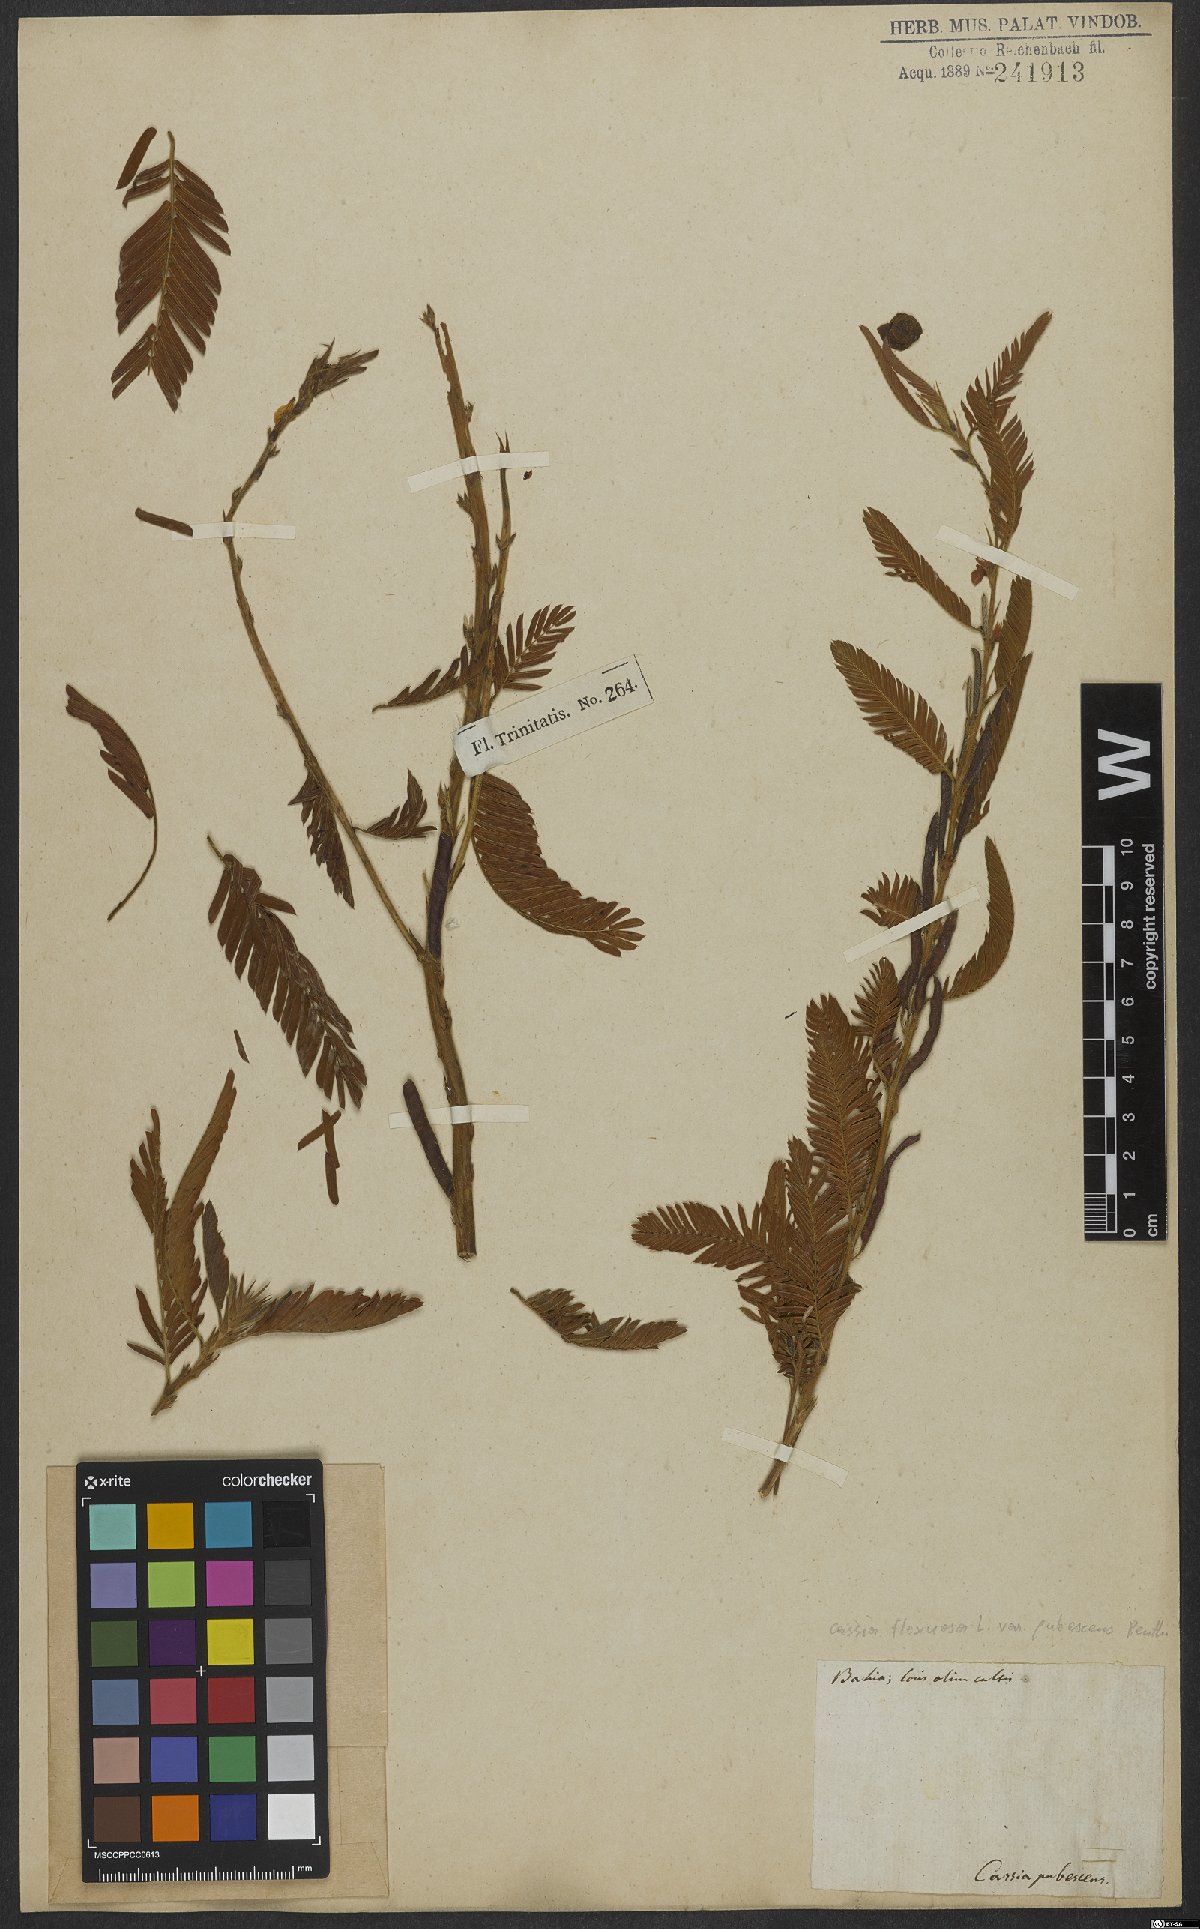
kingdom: Plantae
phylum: Tracheophyta
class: Magnoliopsida
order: Fabales
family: Fabaceae
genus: Chamaecrista
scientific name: Chamaecrista flexuosa
